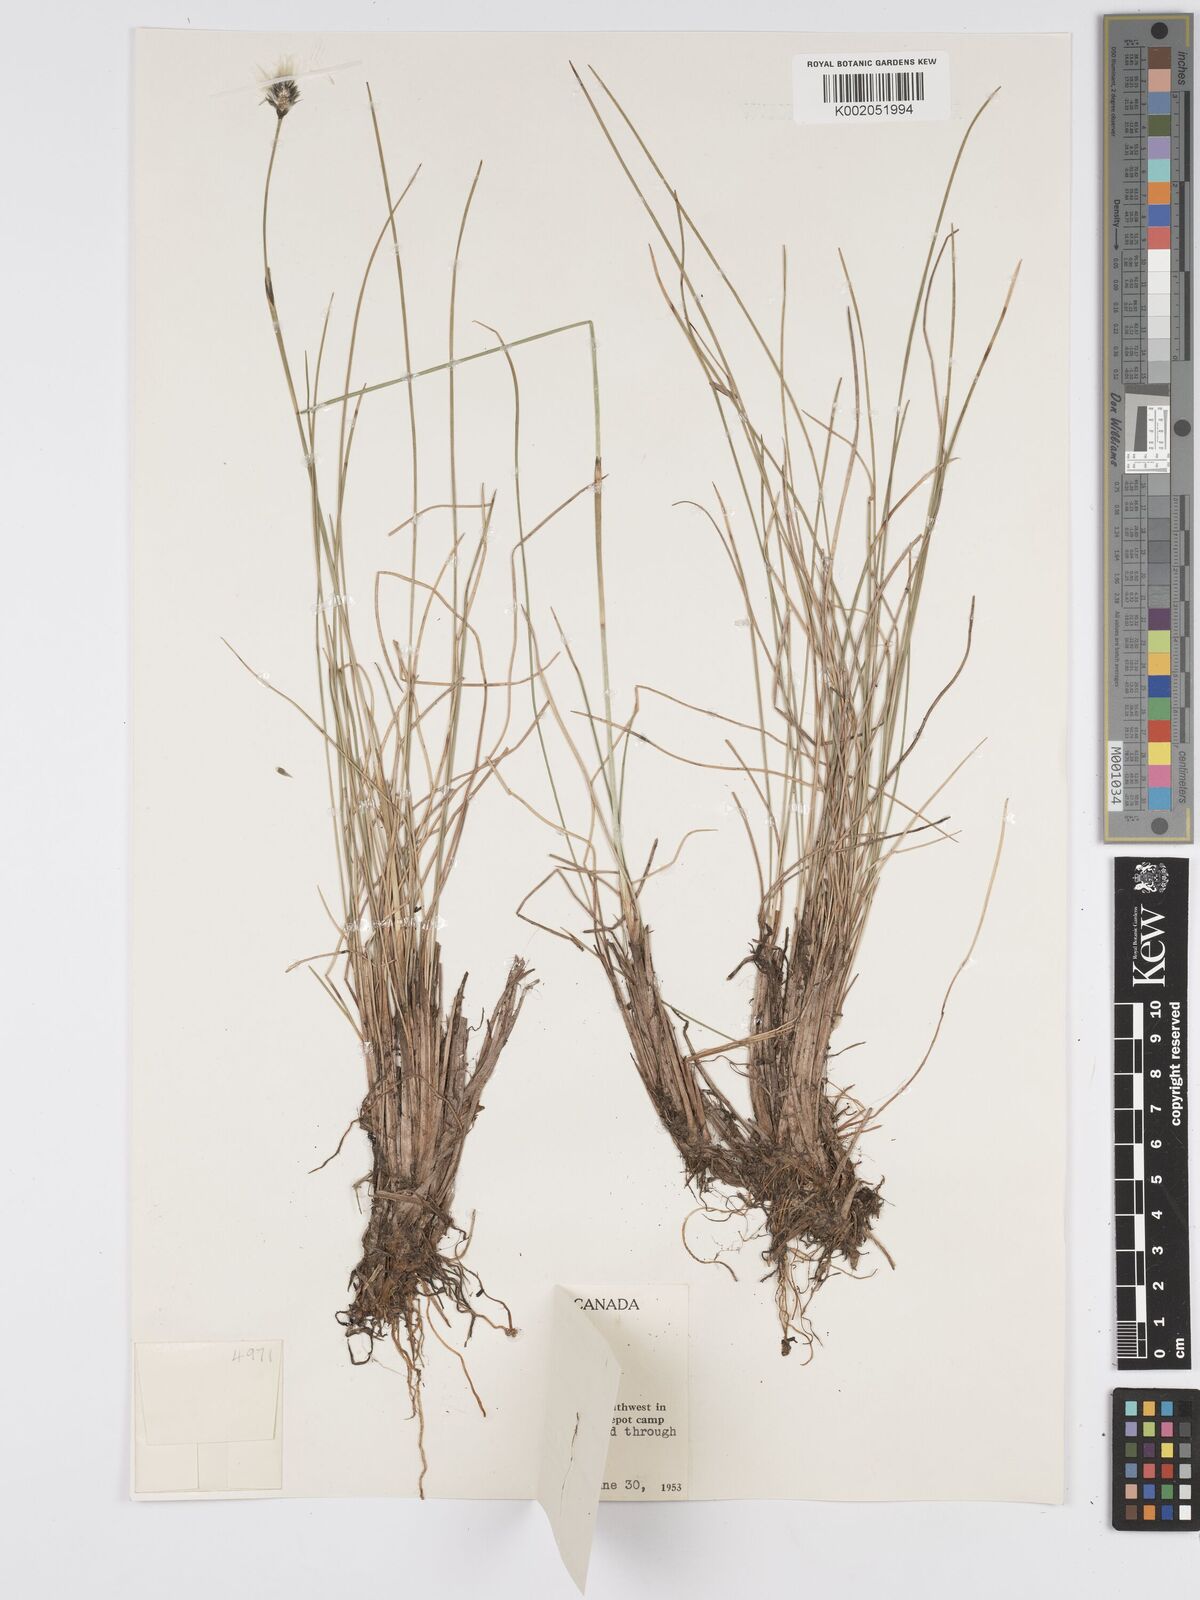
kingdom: Plantae
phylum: Tracheophyta
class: Liliopsida
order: Poales
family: Cyperaceae
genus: Eriophorum
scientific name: Eriophorum brachyantherum
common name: Closed-sheathed cottongrass
